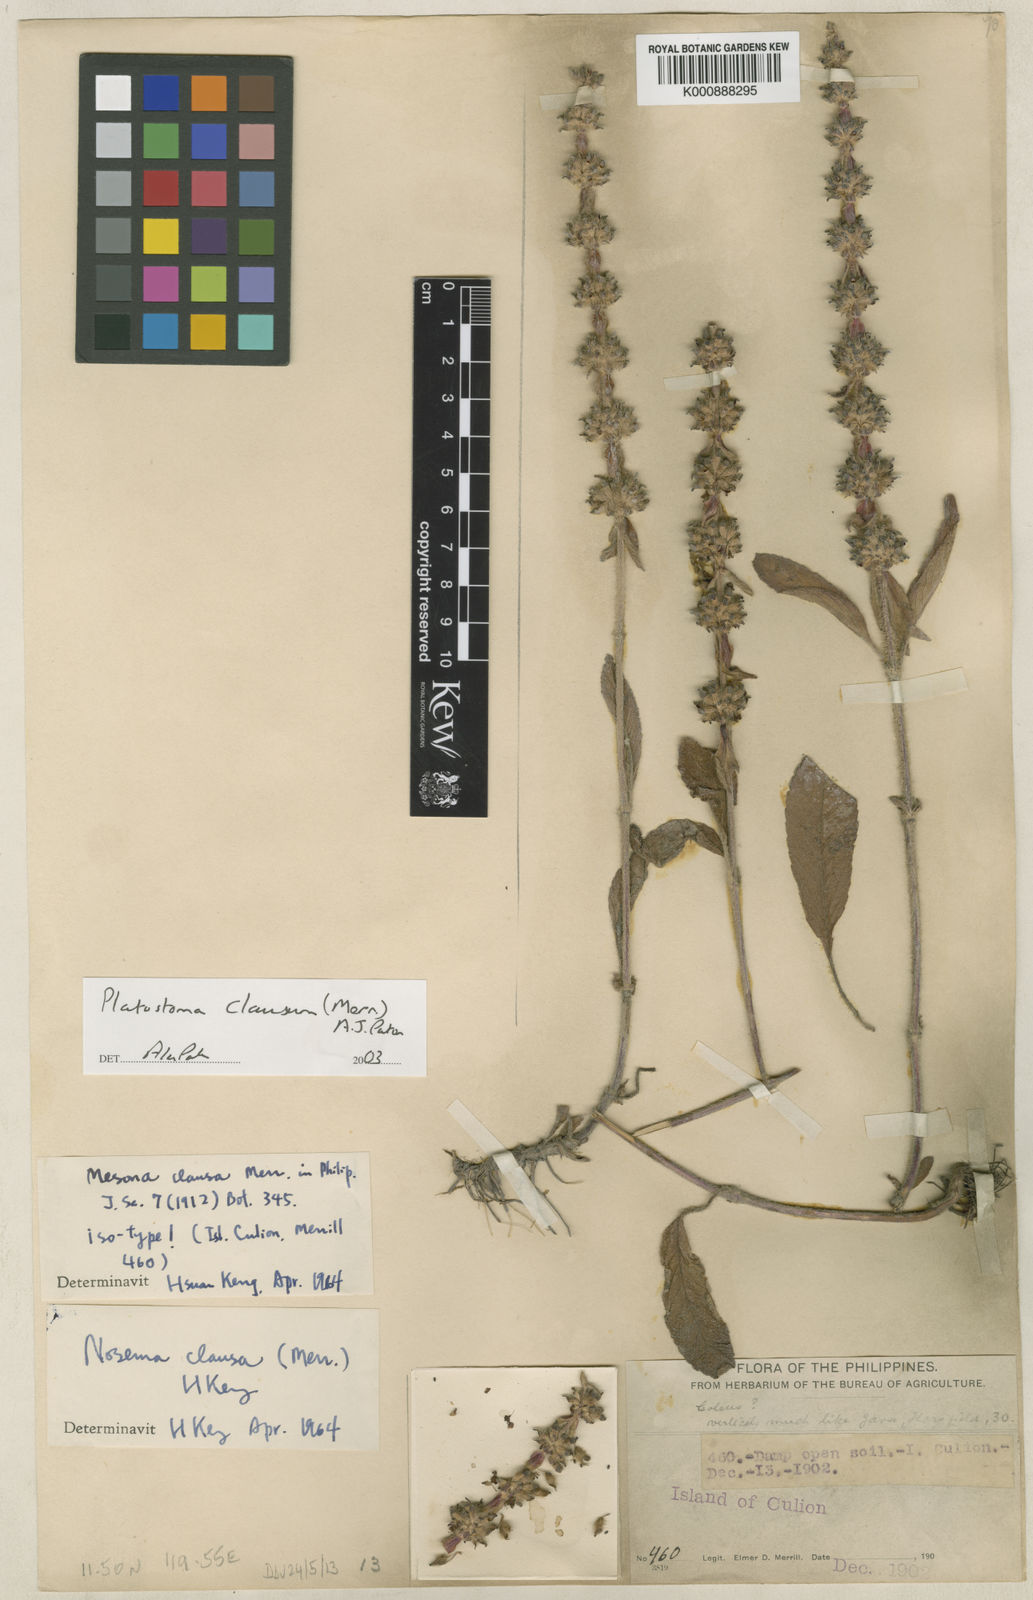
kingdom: Plantae
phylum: Tracheophyta
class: Magnoliopsida
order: Lamiales
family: Lamiaceae
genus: Platostoma
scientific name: Platostoma clausum
